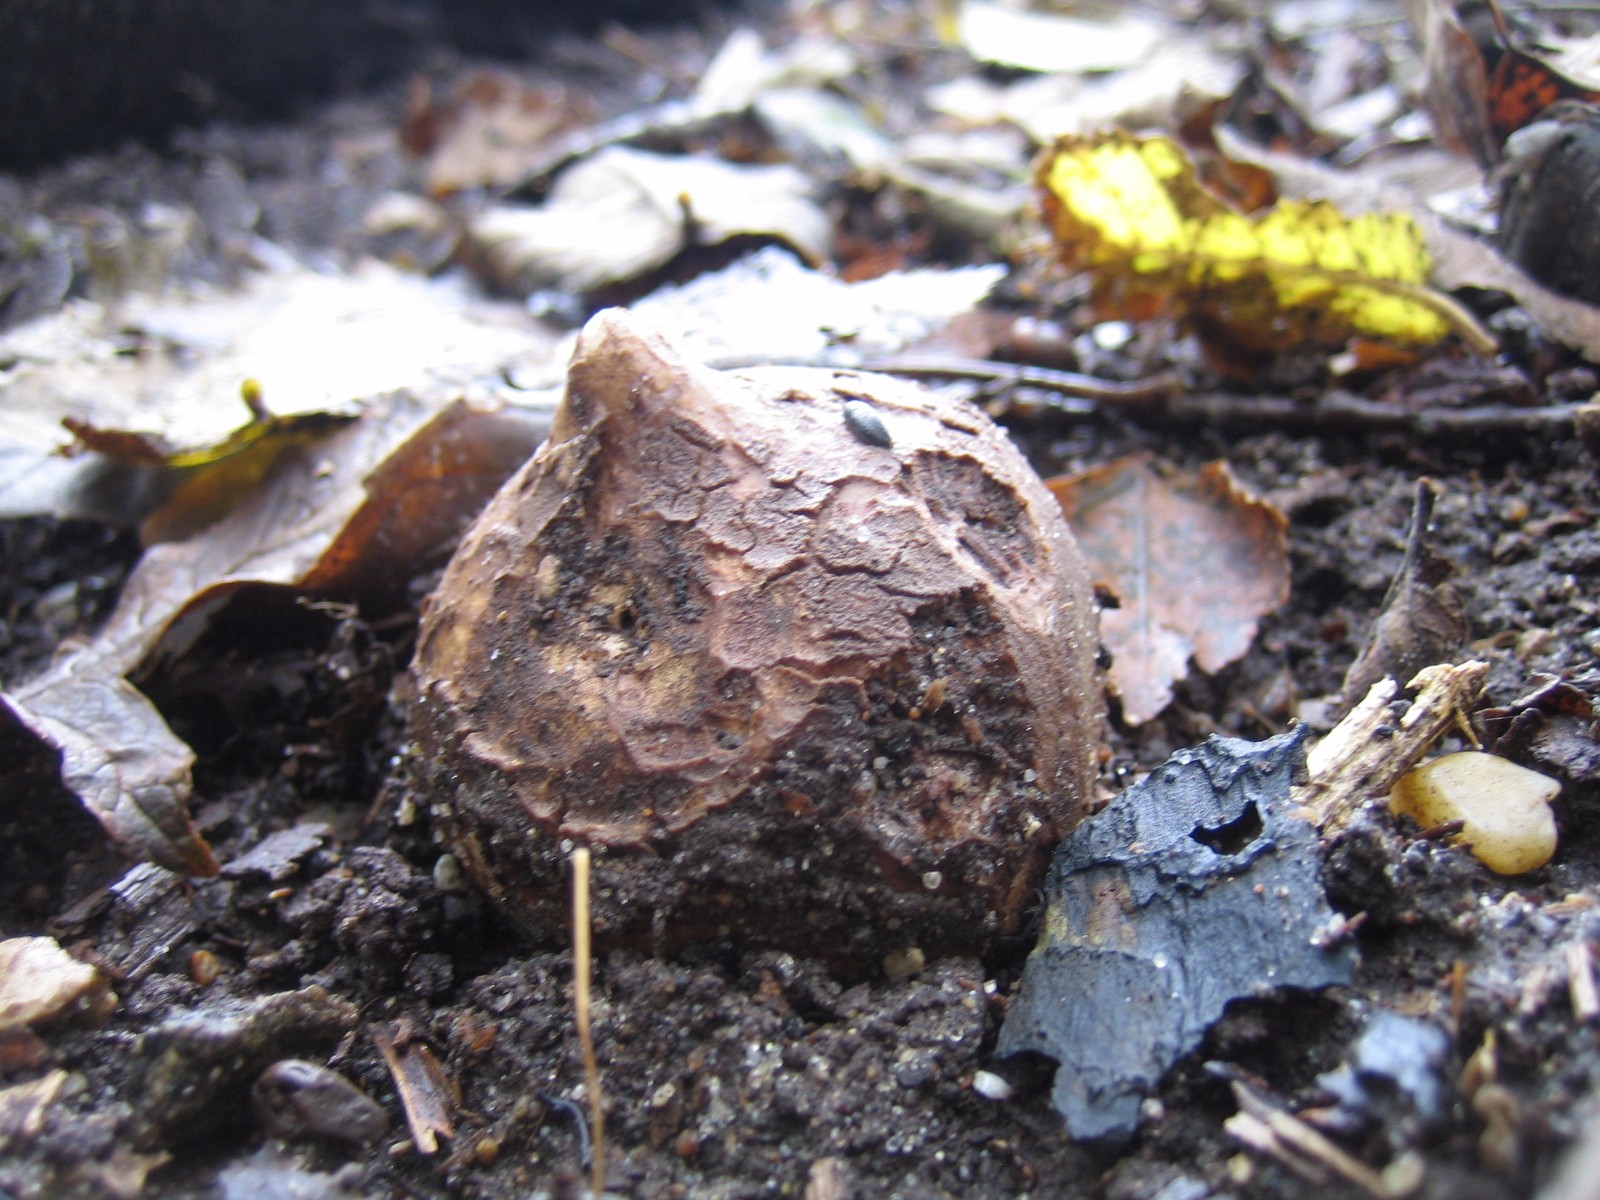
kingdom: Fungi
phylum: Basidiomycota
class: Agaricomycetes
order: Geastrales
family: Geastraceae
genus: Geastrum
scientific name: Geastrum michelianum
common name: kødet stjernebold
